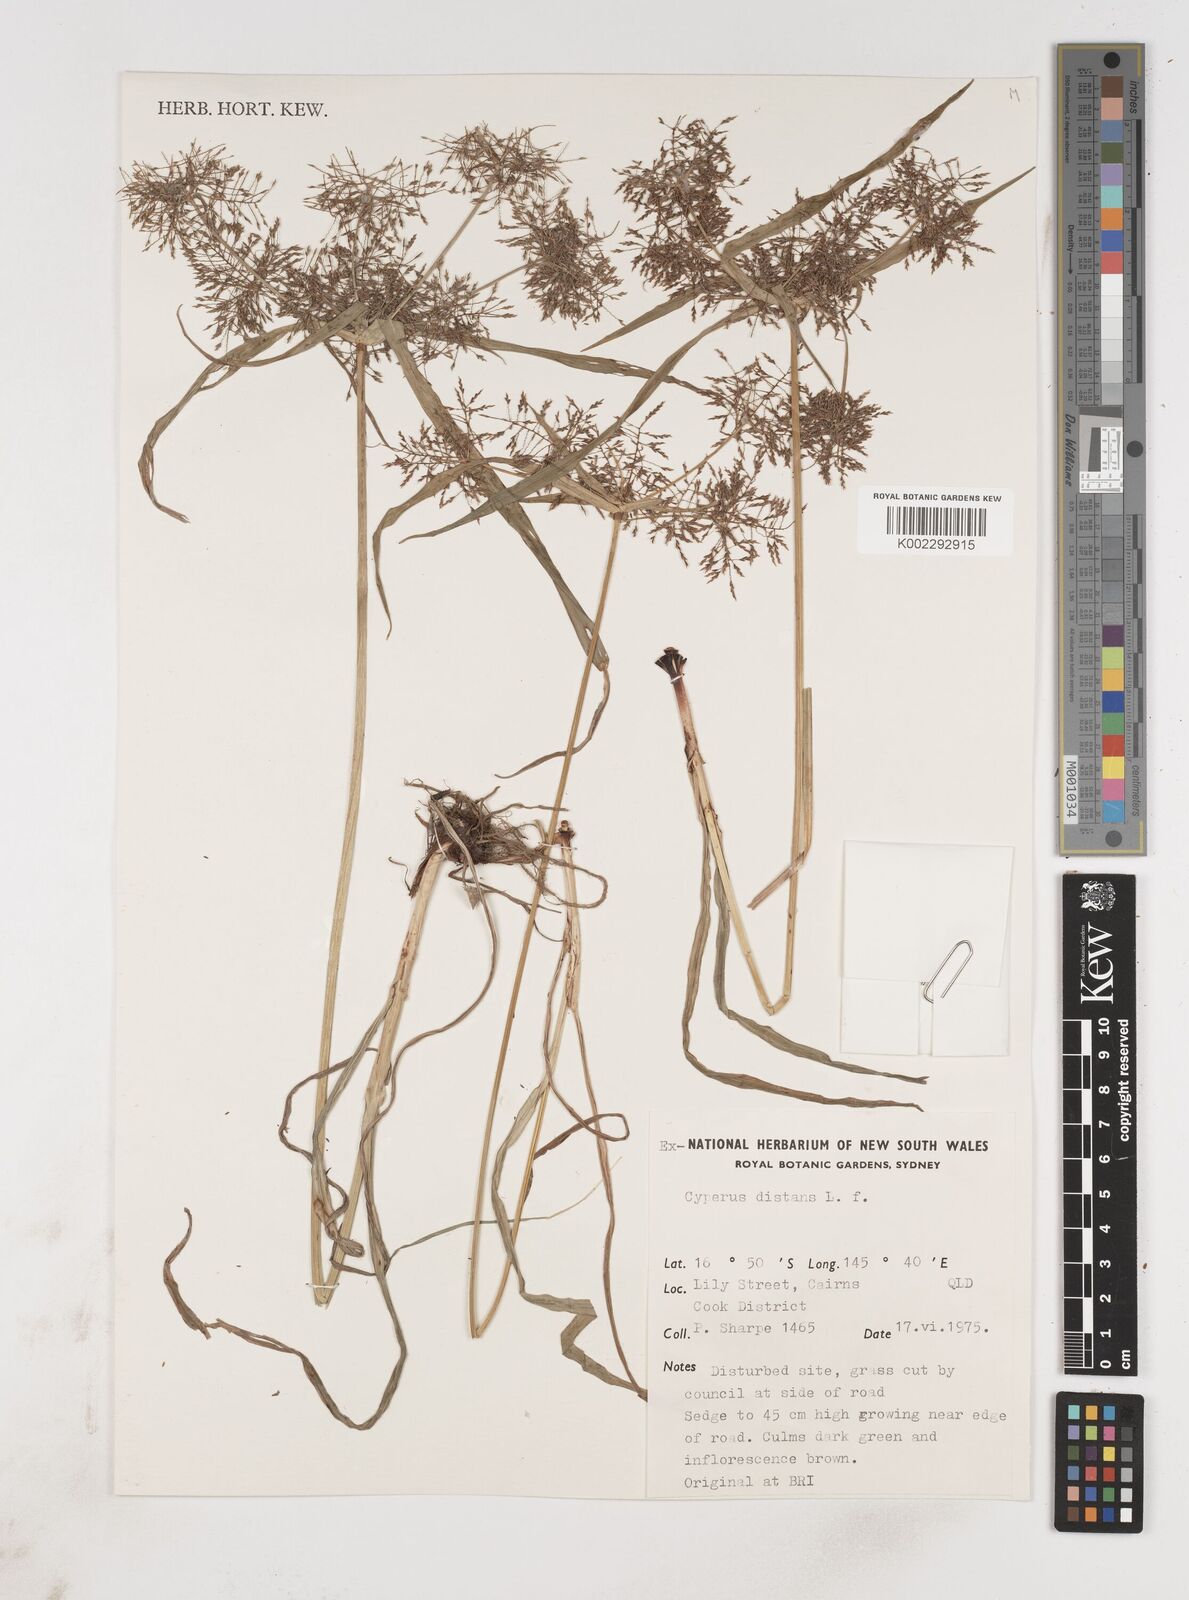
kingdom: Plantae
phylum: Tracheophyta
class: Liliopsida
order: Poales
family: Cyperaceae
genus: Cyperus
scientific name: Cyperus distans
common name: Slender cyperus
